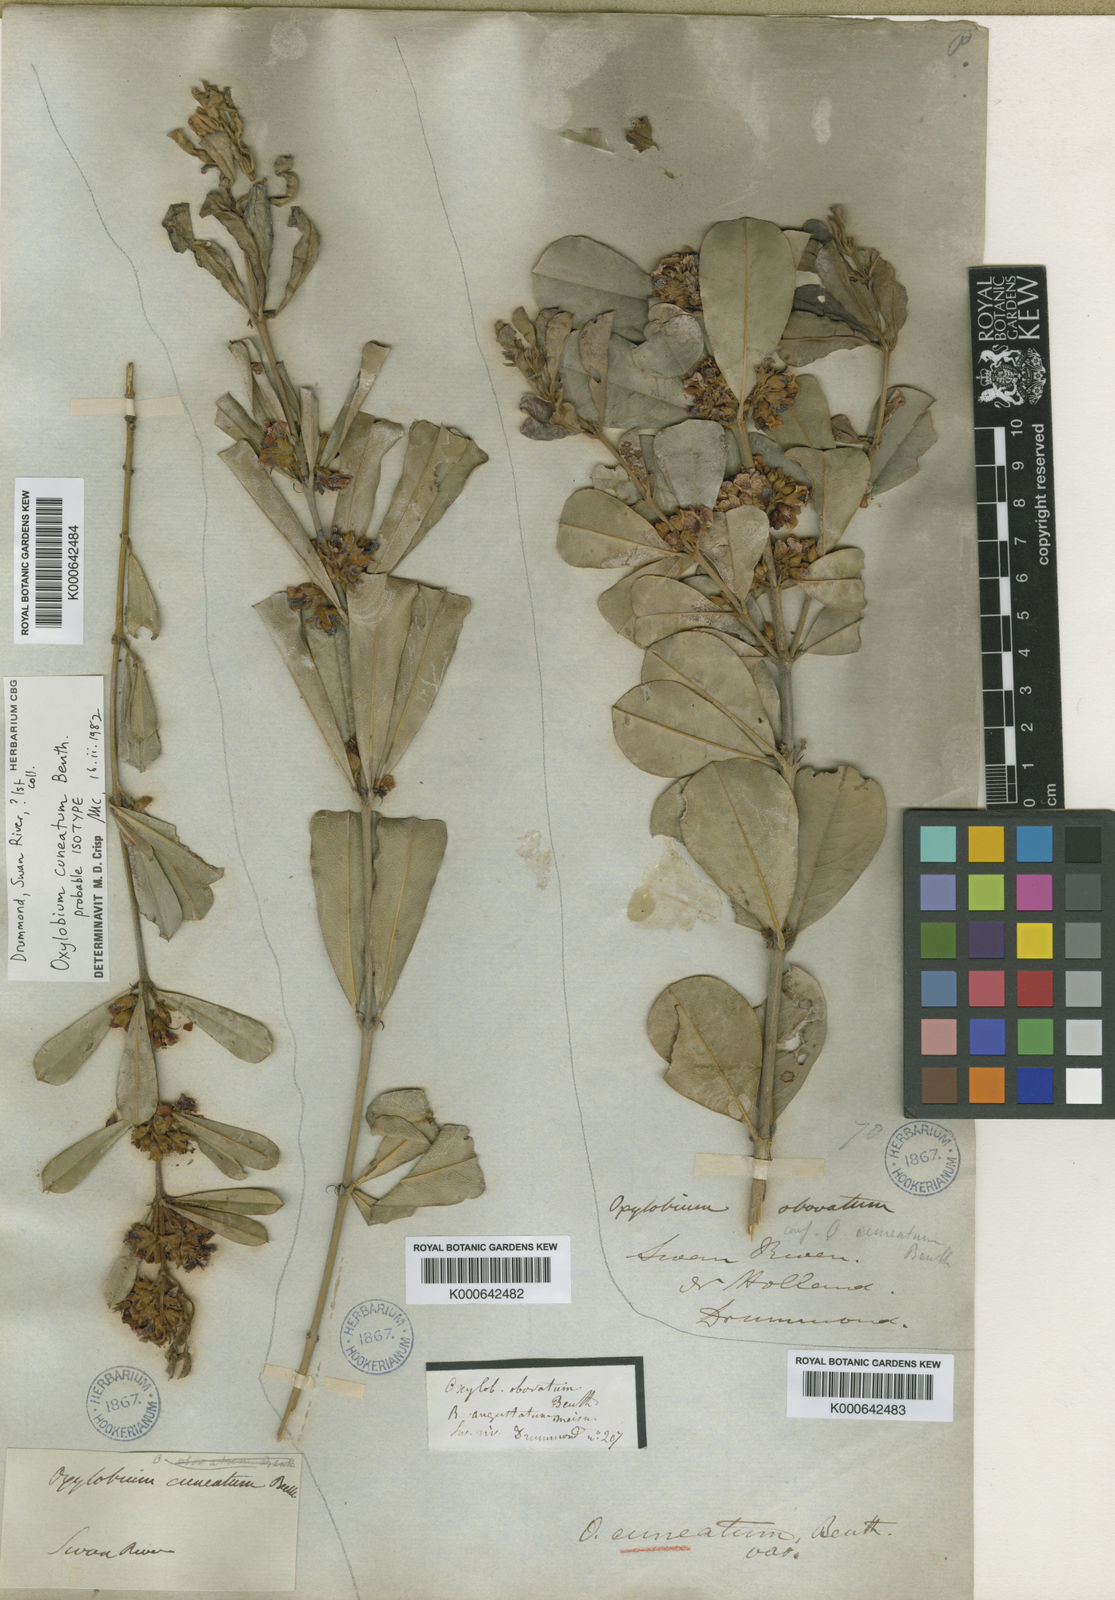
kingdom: Plantae
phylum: Tracheophyta
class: Magnoliopsida
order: Fabales
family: Fabaceae
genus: Gastrolobium
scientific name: Gastrolobium cuneatum
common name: River poisonbush
